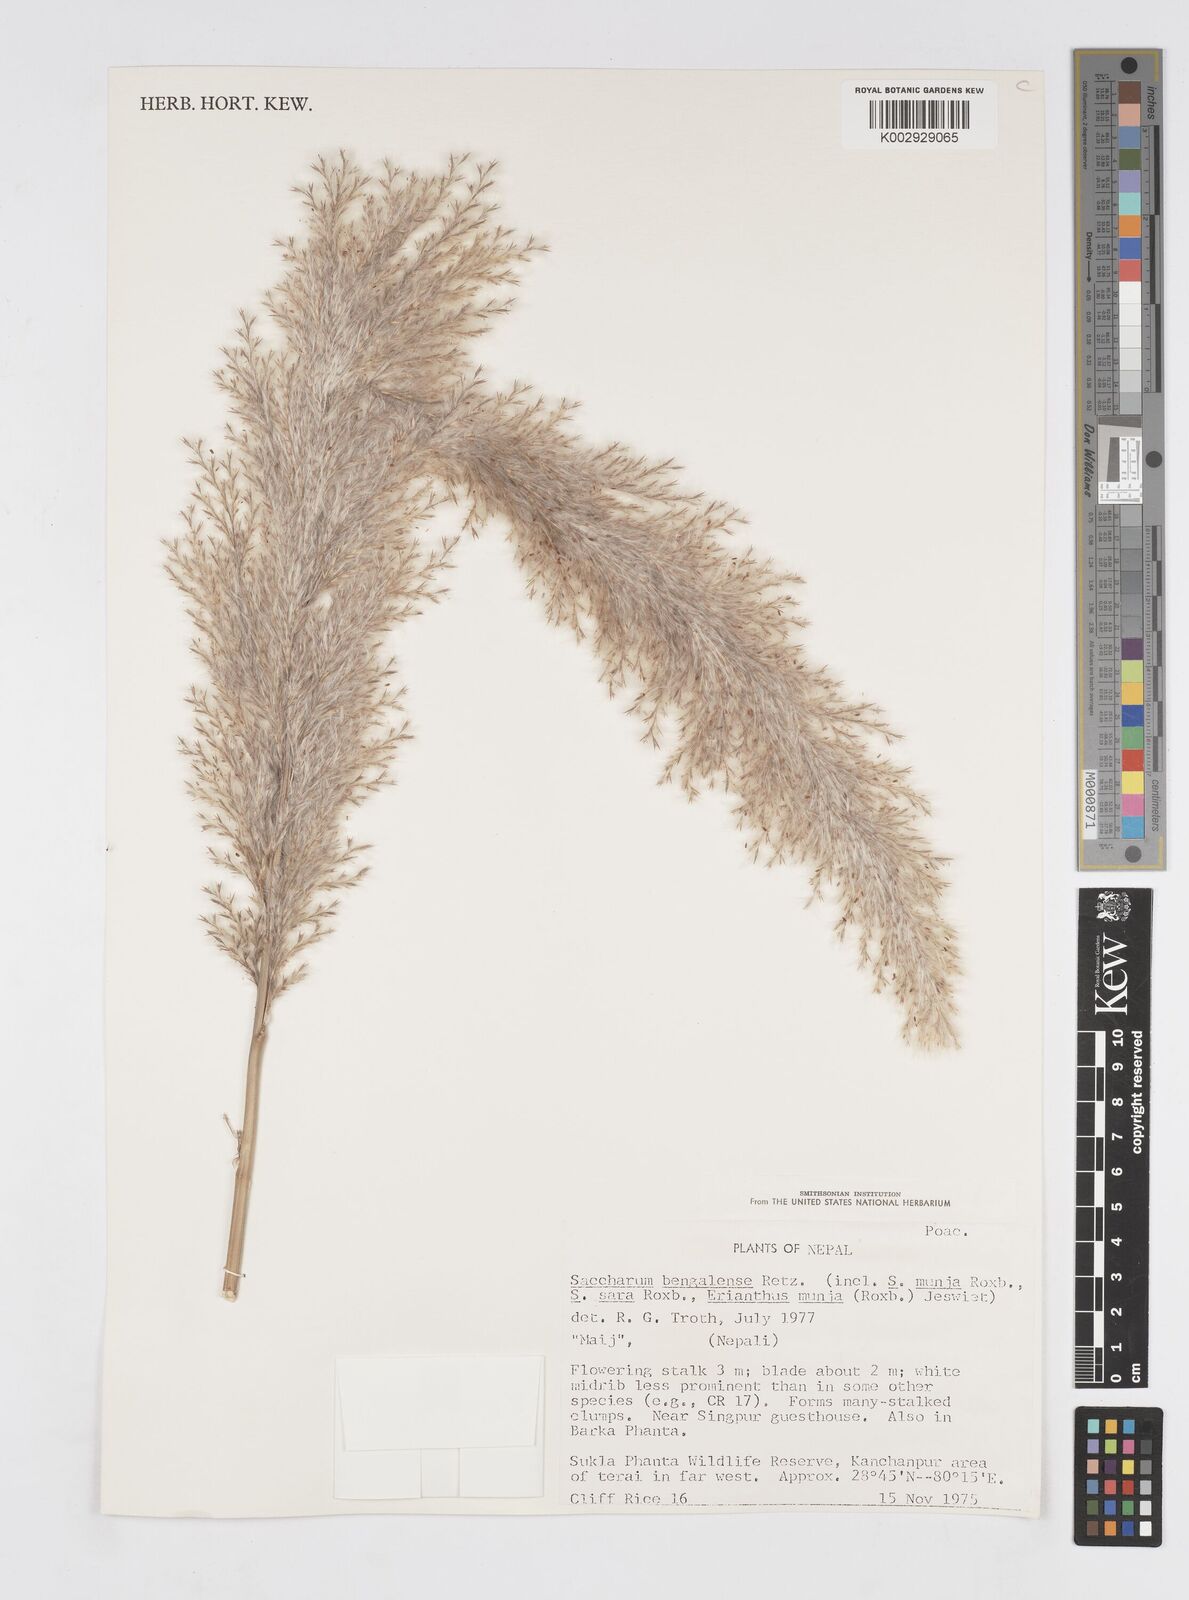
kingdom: Plantae
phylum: Tracheophyta
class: Liliopsida
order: Poales
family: Poaceae
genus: Tripidium
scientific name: Tripidium bengalense
